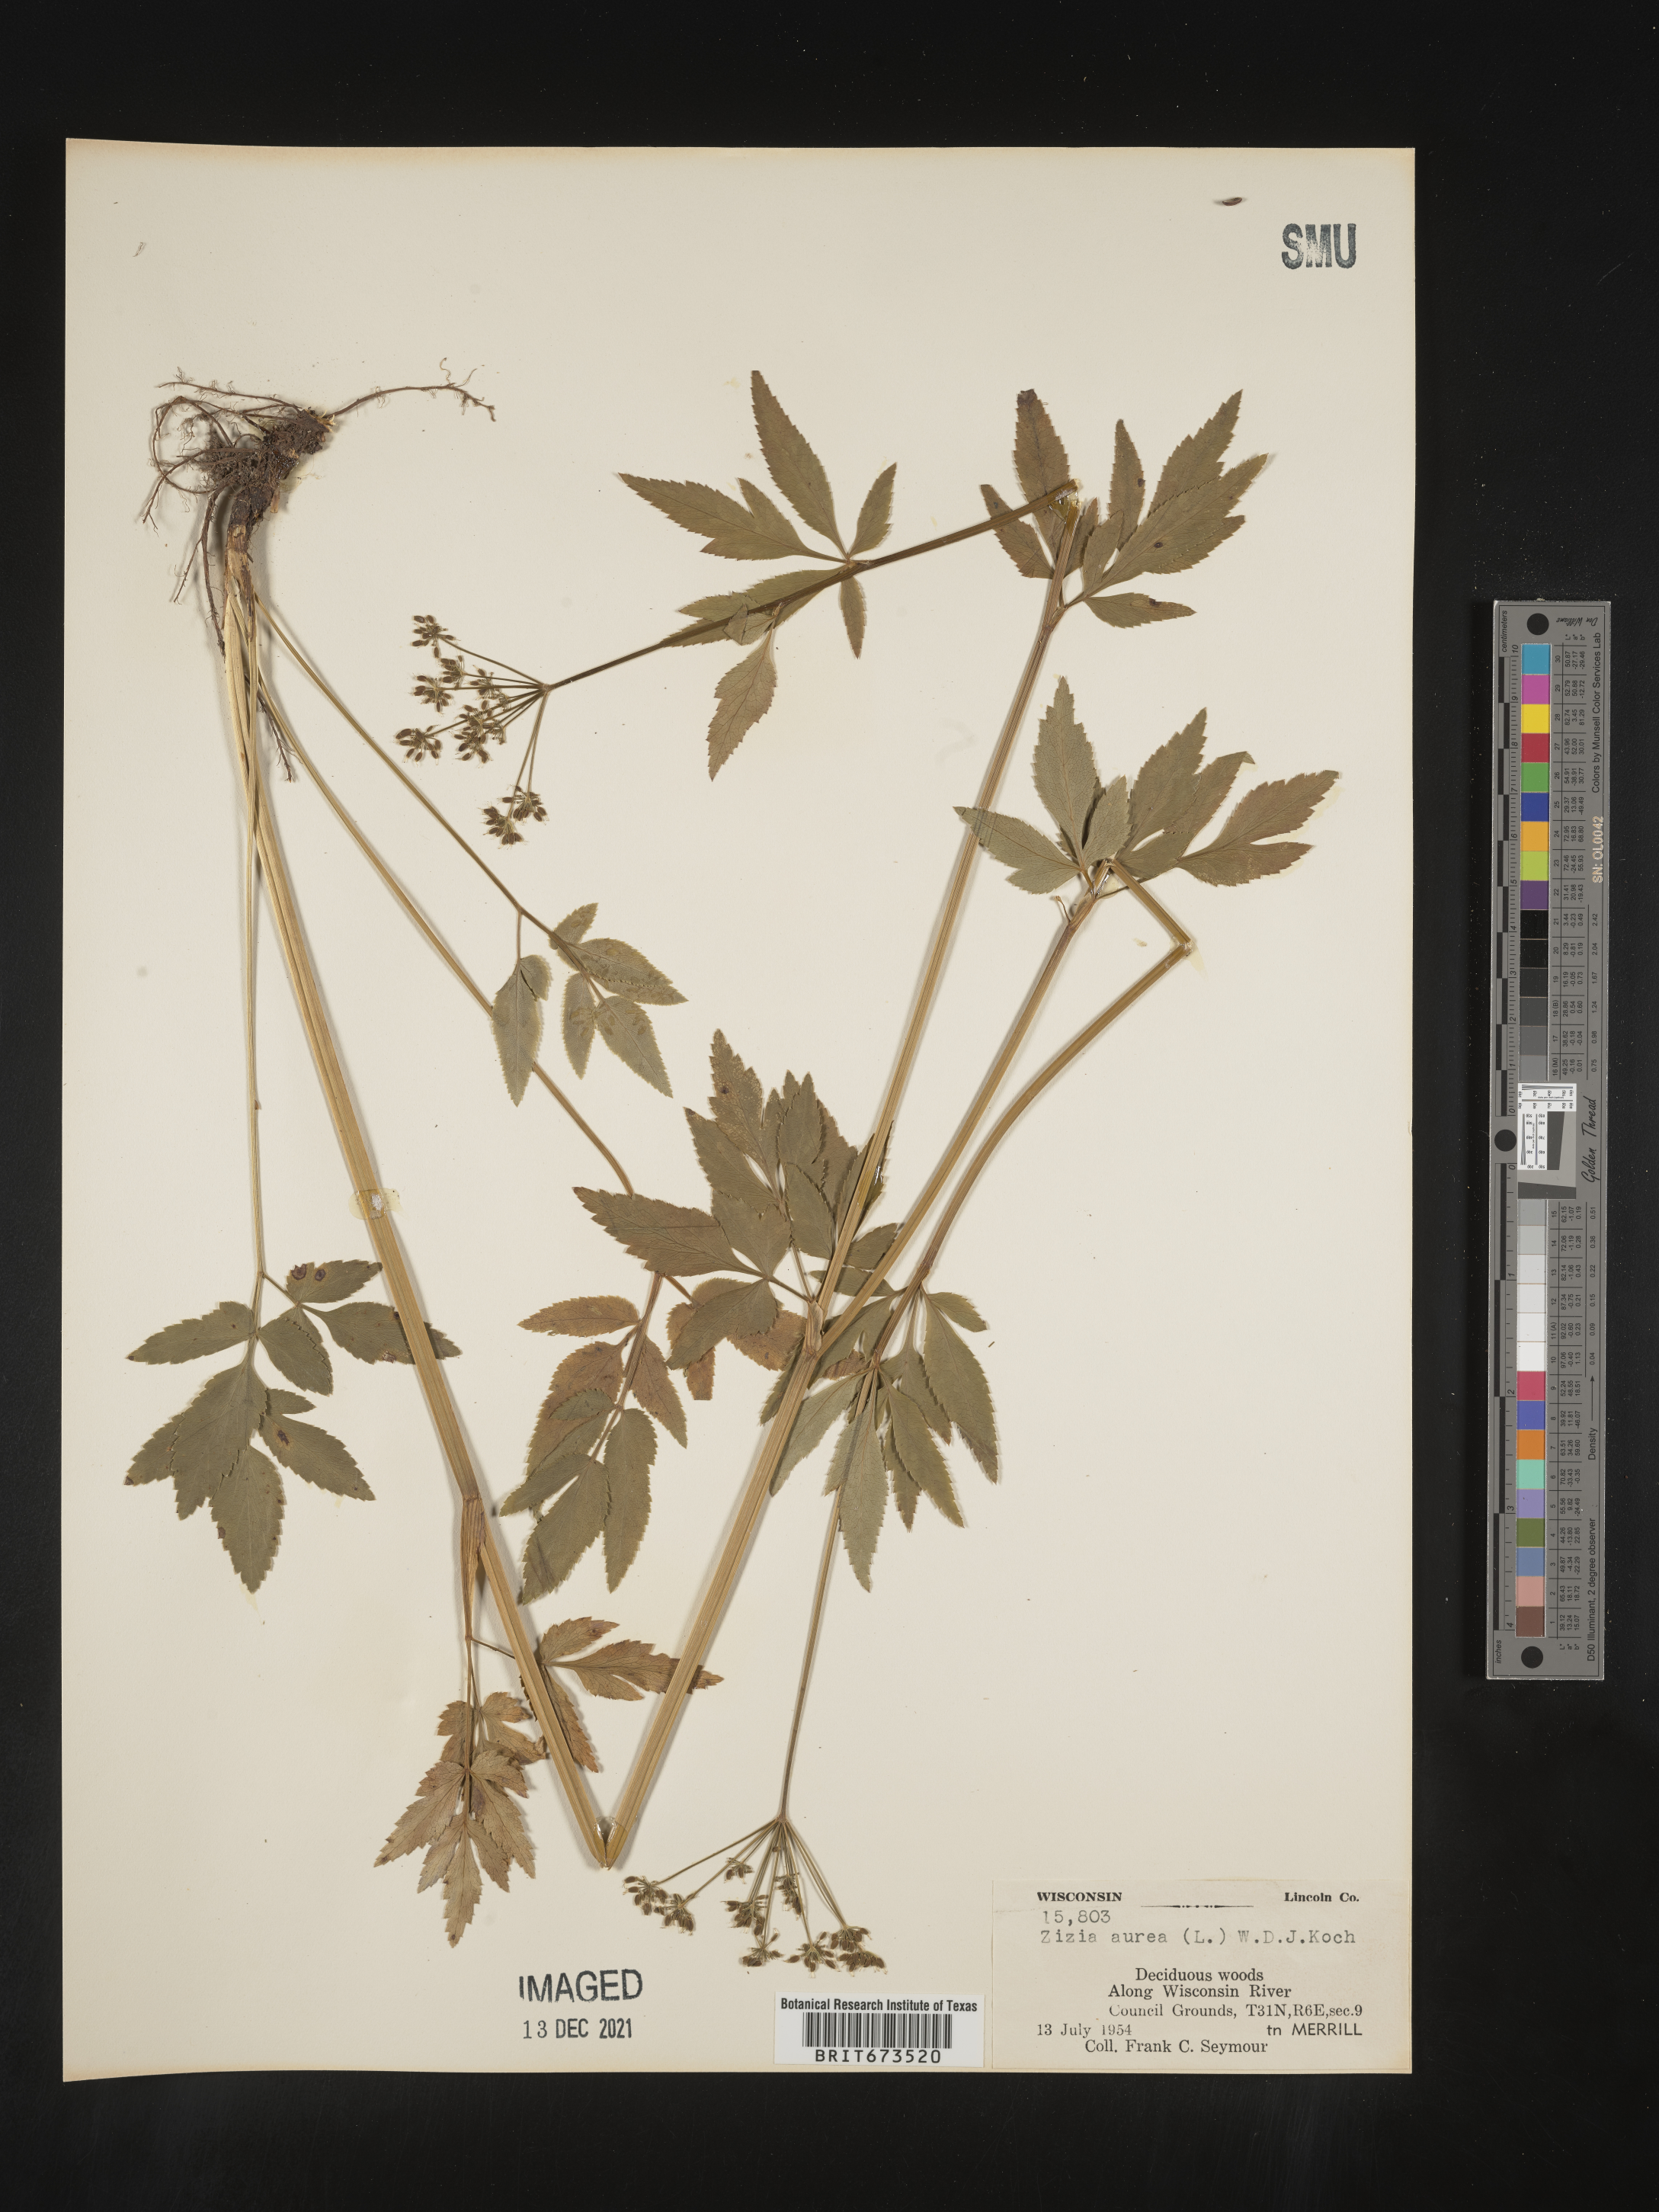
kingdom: Plantae
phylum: Tracheophyta
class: Magnoliopsida
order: Apiales
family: Apiaceae
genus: Zizia
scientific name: Zizia aurea
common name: Golden alexanders
